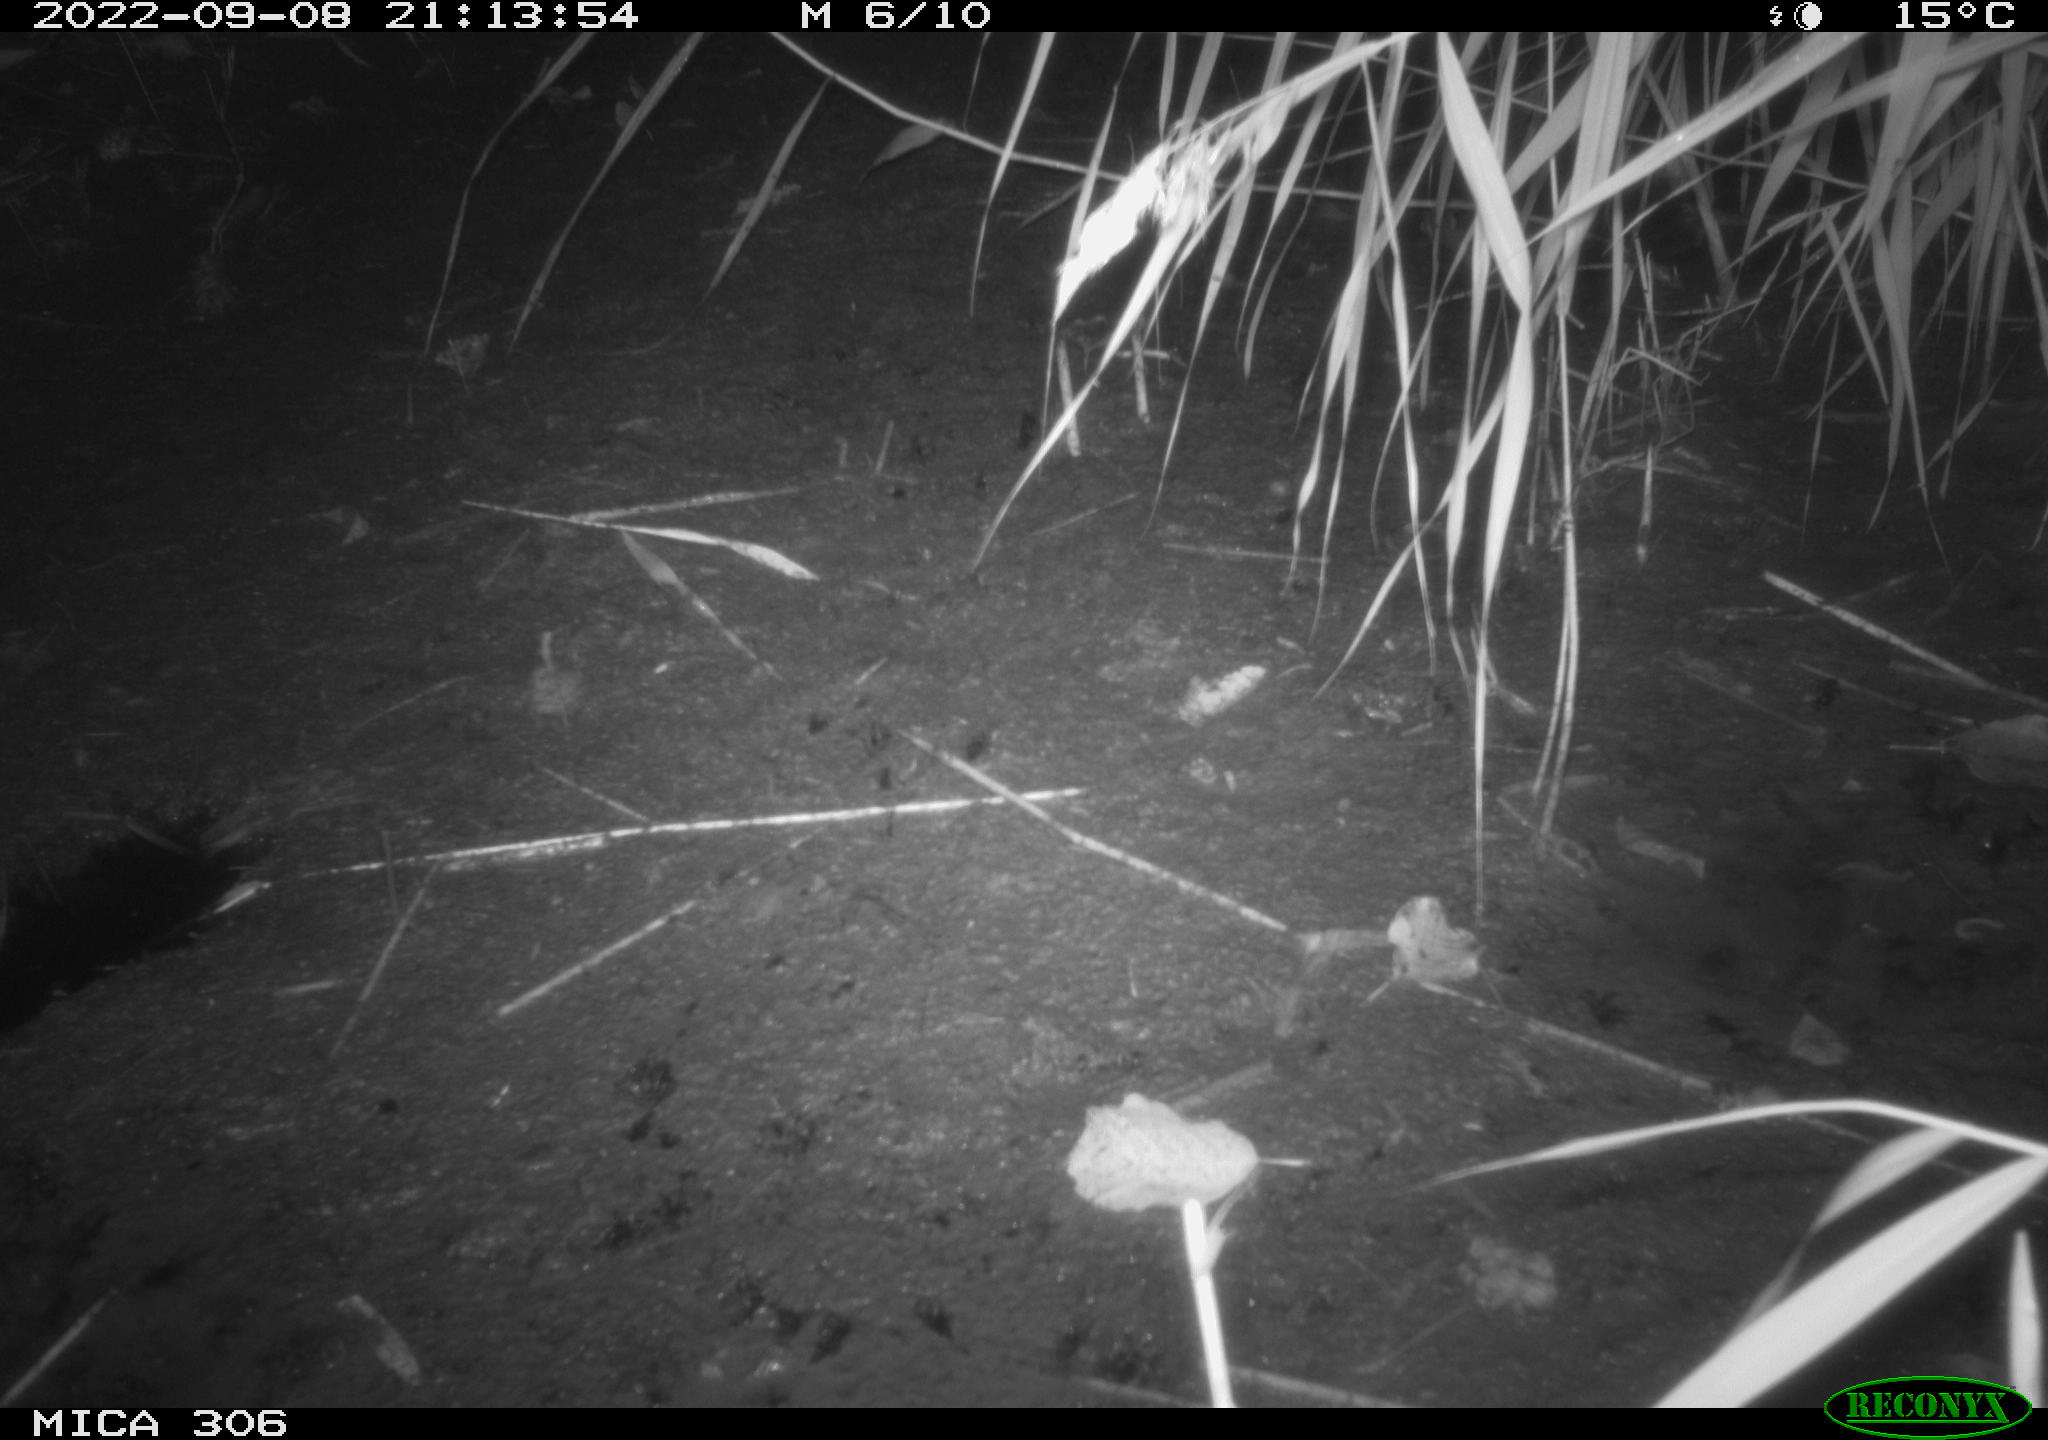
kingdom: Animalia
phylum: Chordata
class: Mammalia
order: Rodentia
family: Muridae
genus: Rattus
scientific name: Rattus norvegicus
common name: Brown rat
